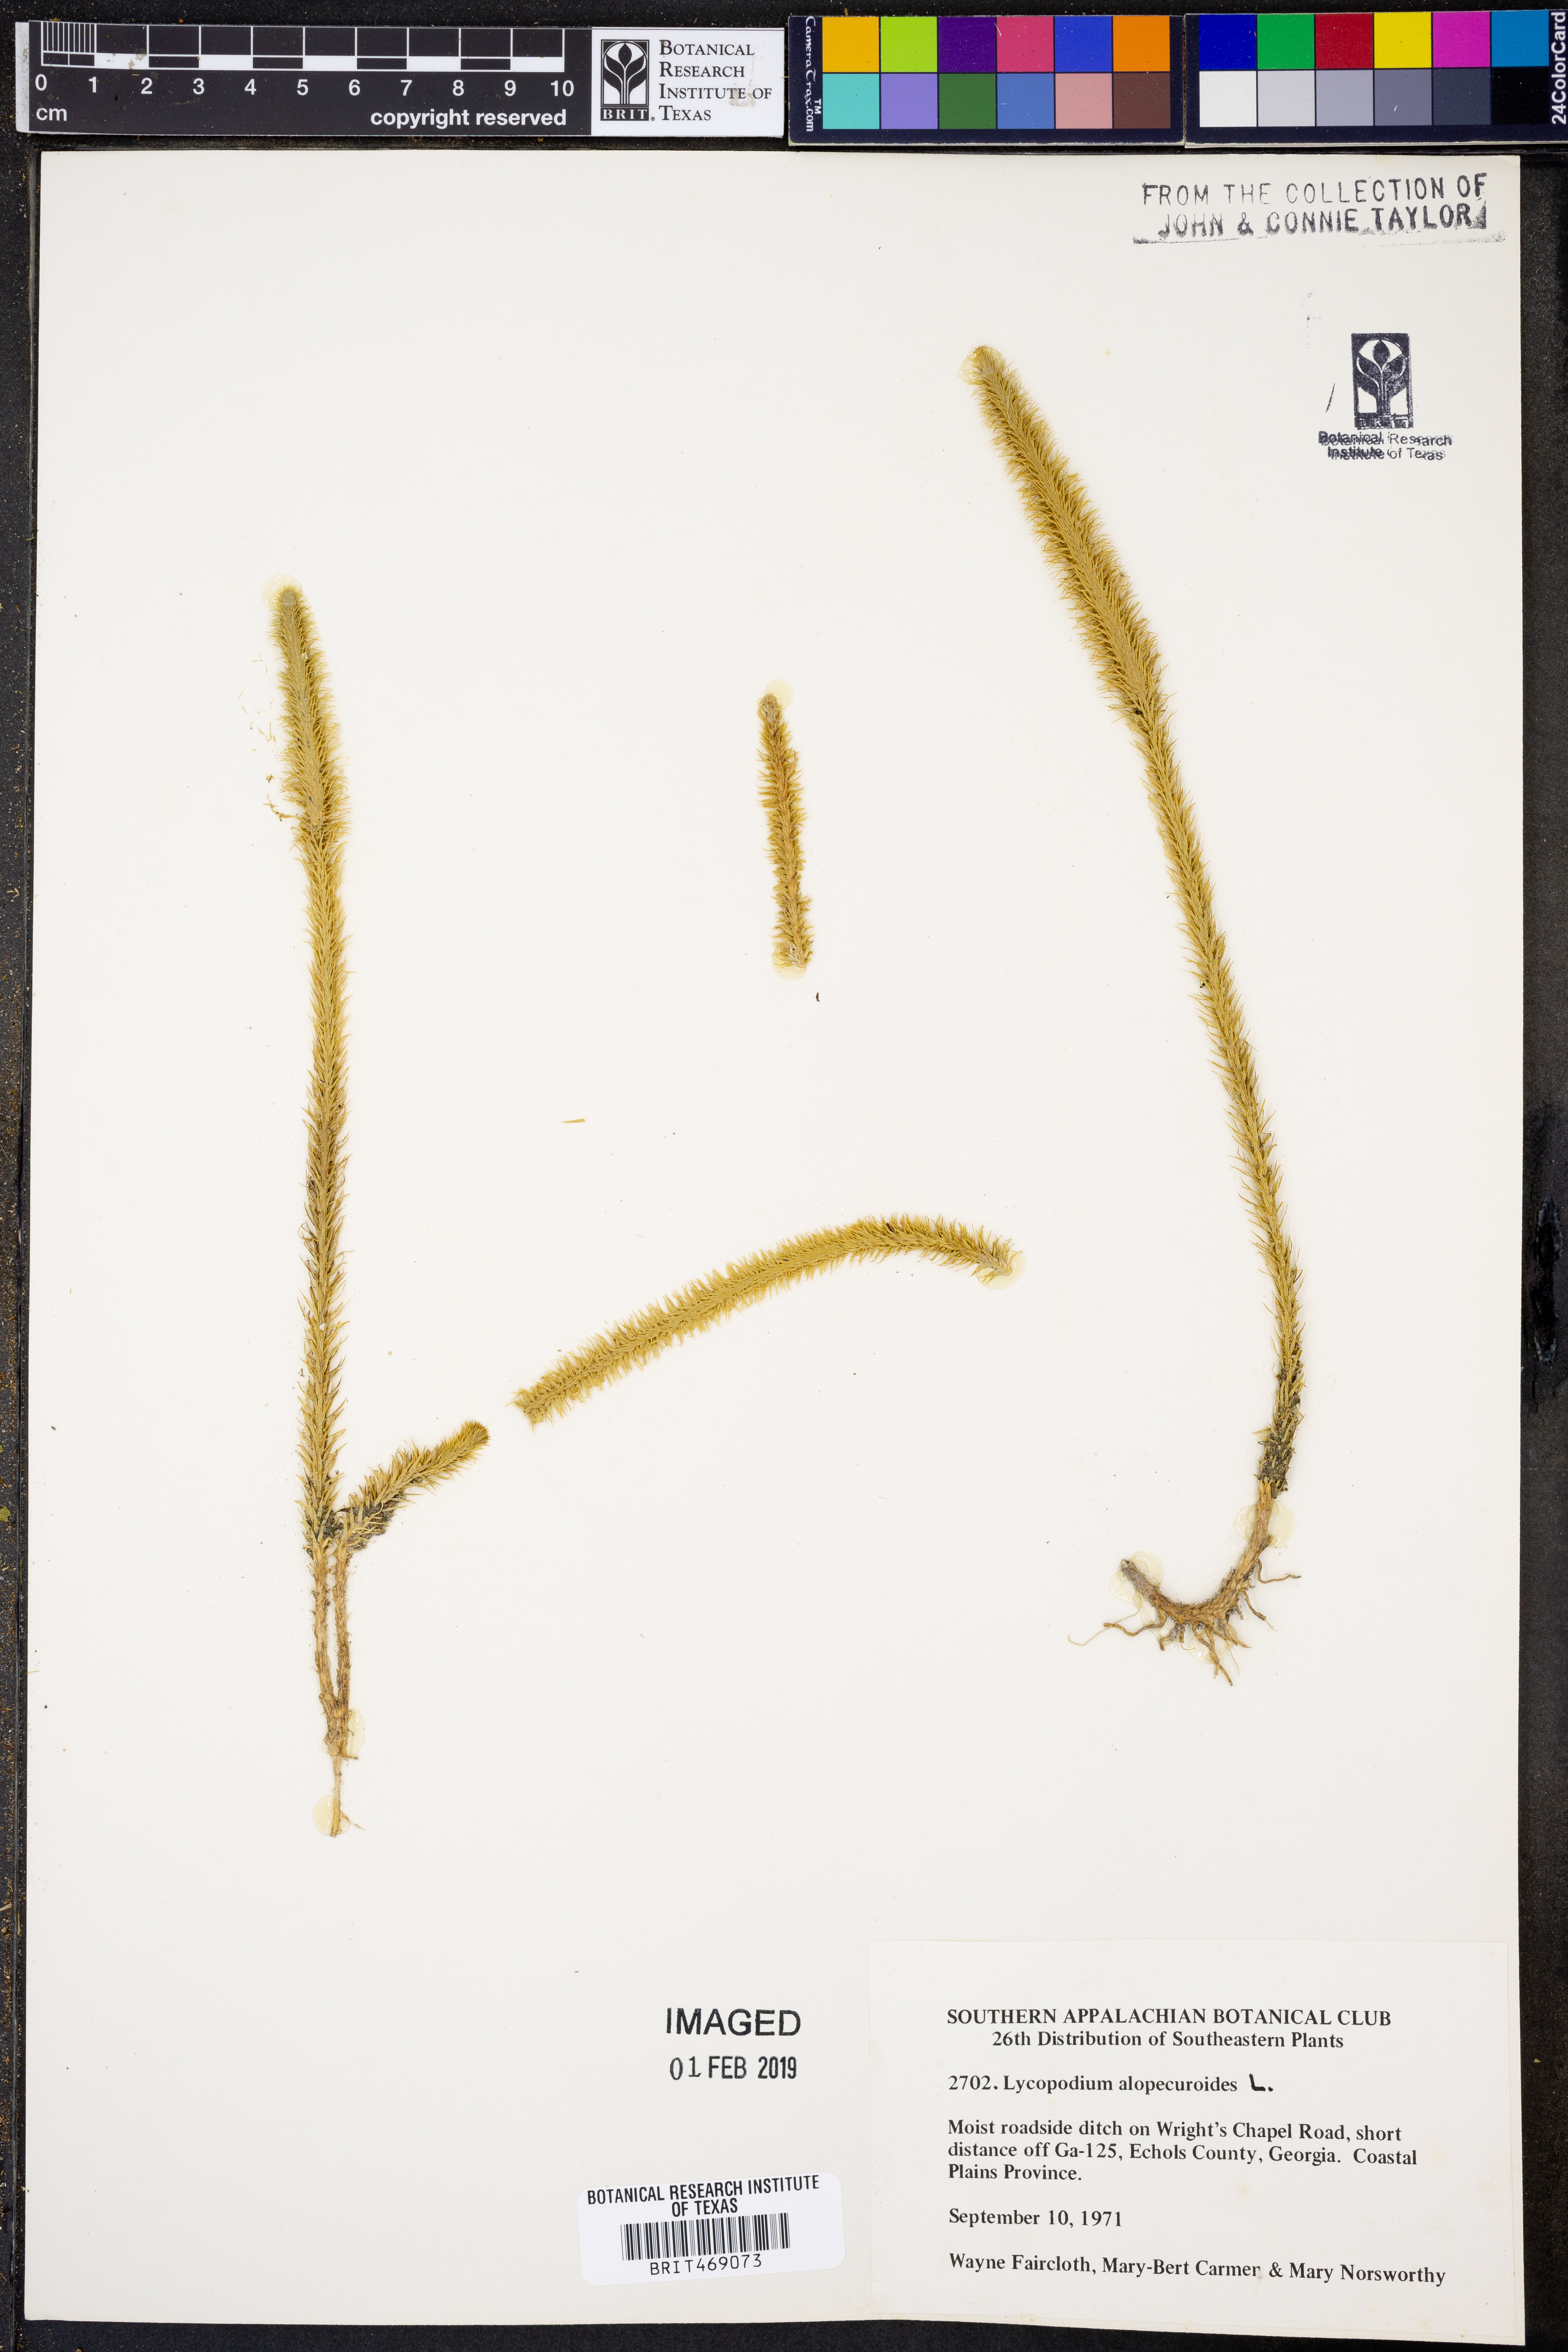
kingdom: Plantae
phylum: Tracheophyta
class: Lycopodiopsida
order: Lycopodiales
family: Lycopodiaceae
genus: Lycopodiella
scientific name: Lycopodiella alopecuroides
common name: Foxtail clubmoss
